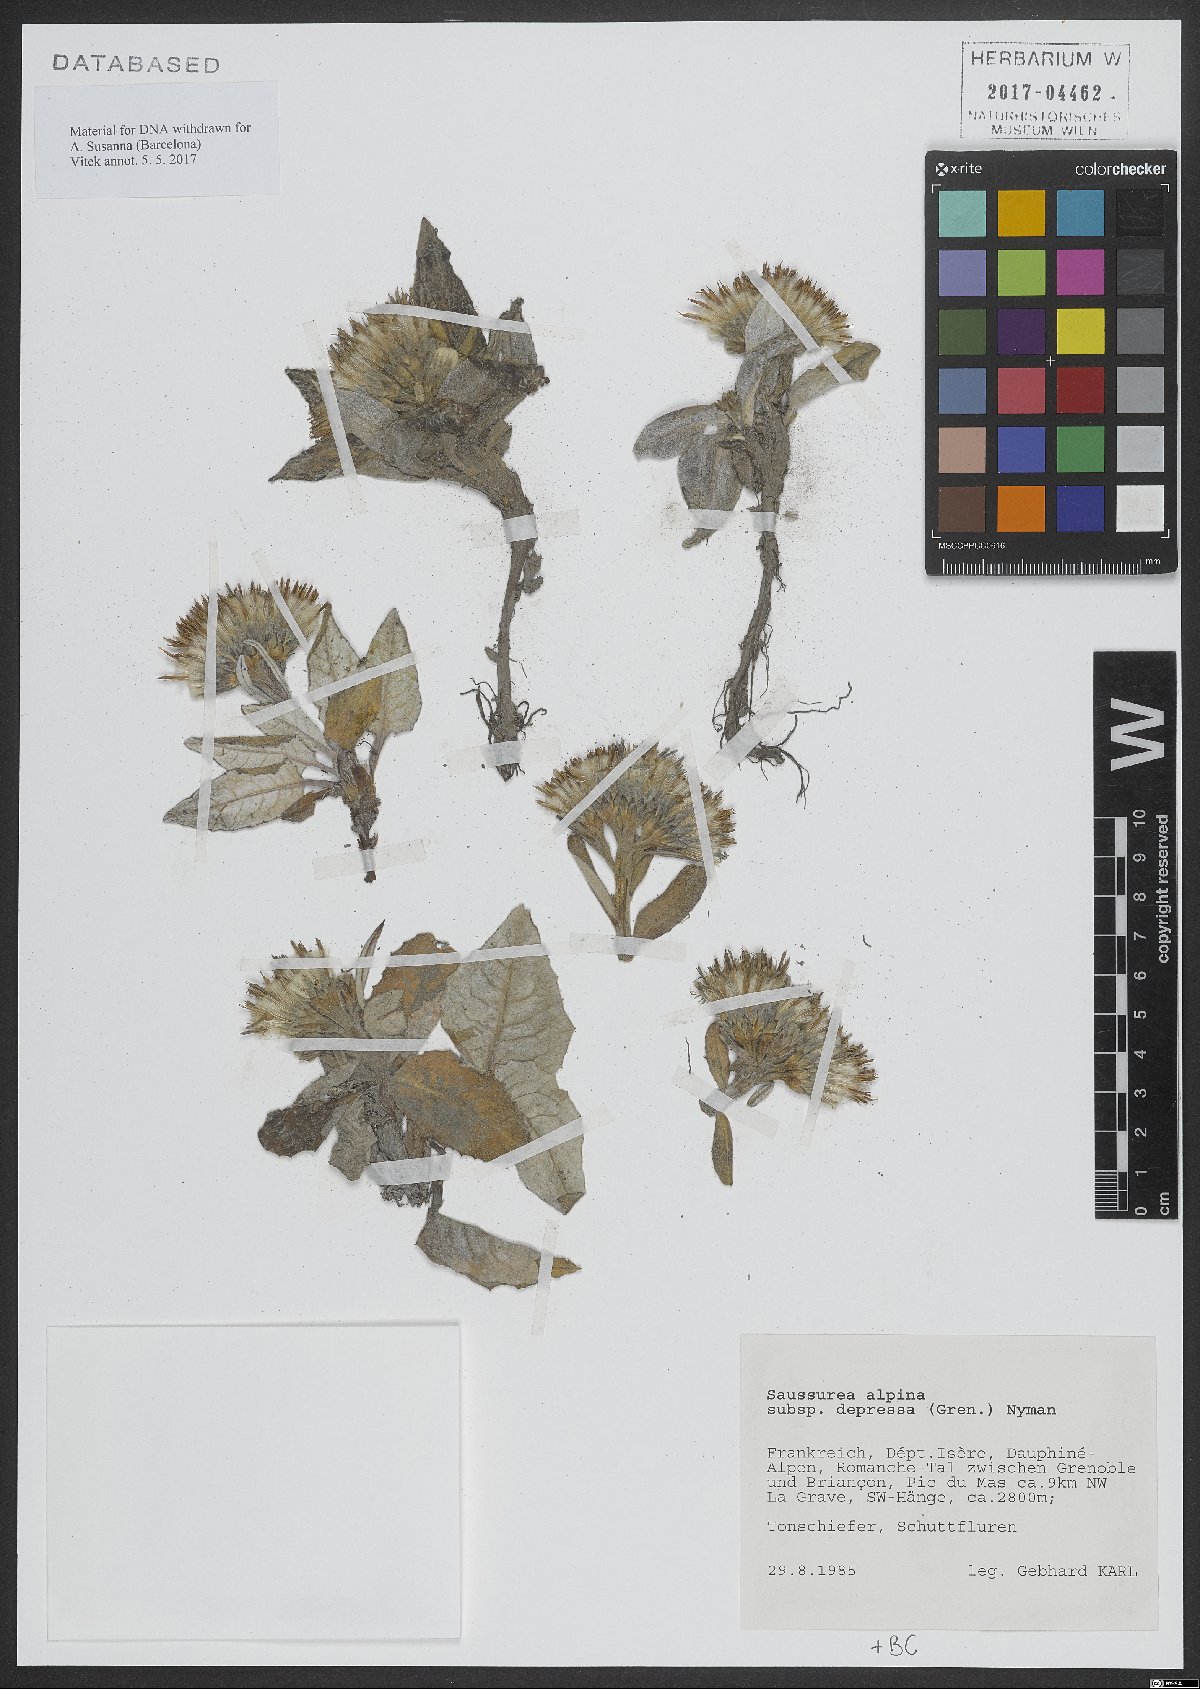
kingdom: Plantae
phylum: Tracheophyta
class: Magnoliopsida
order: Asterales
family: Asteraceae
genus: Saussurea
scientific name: Saussurea depressa
